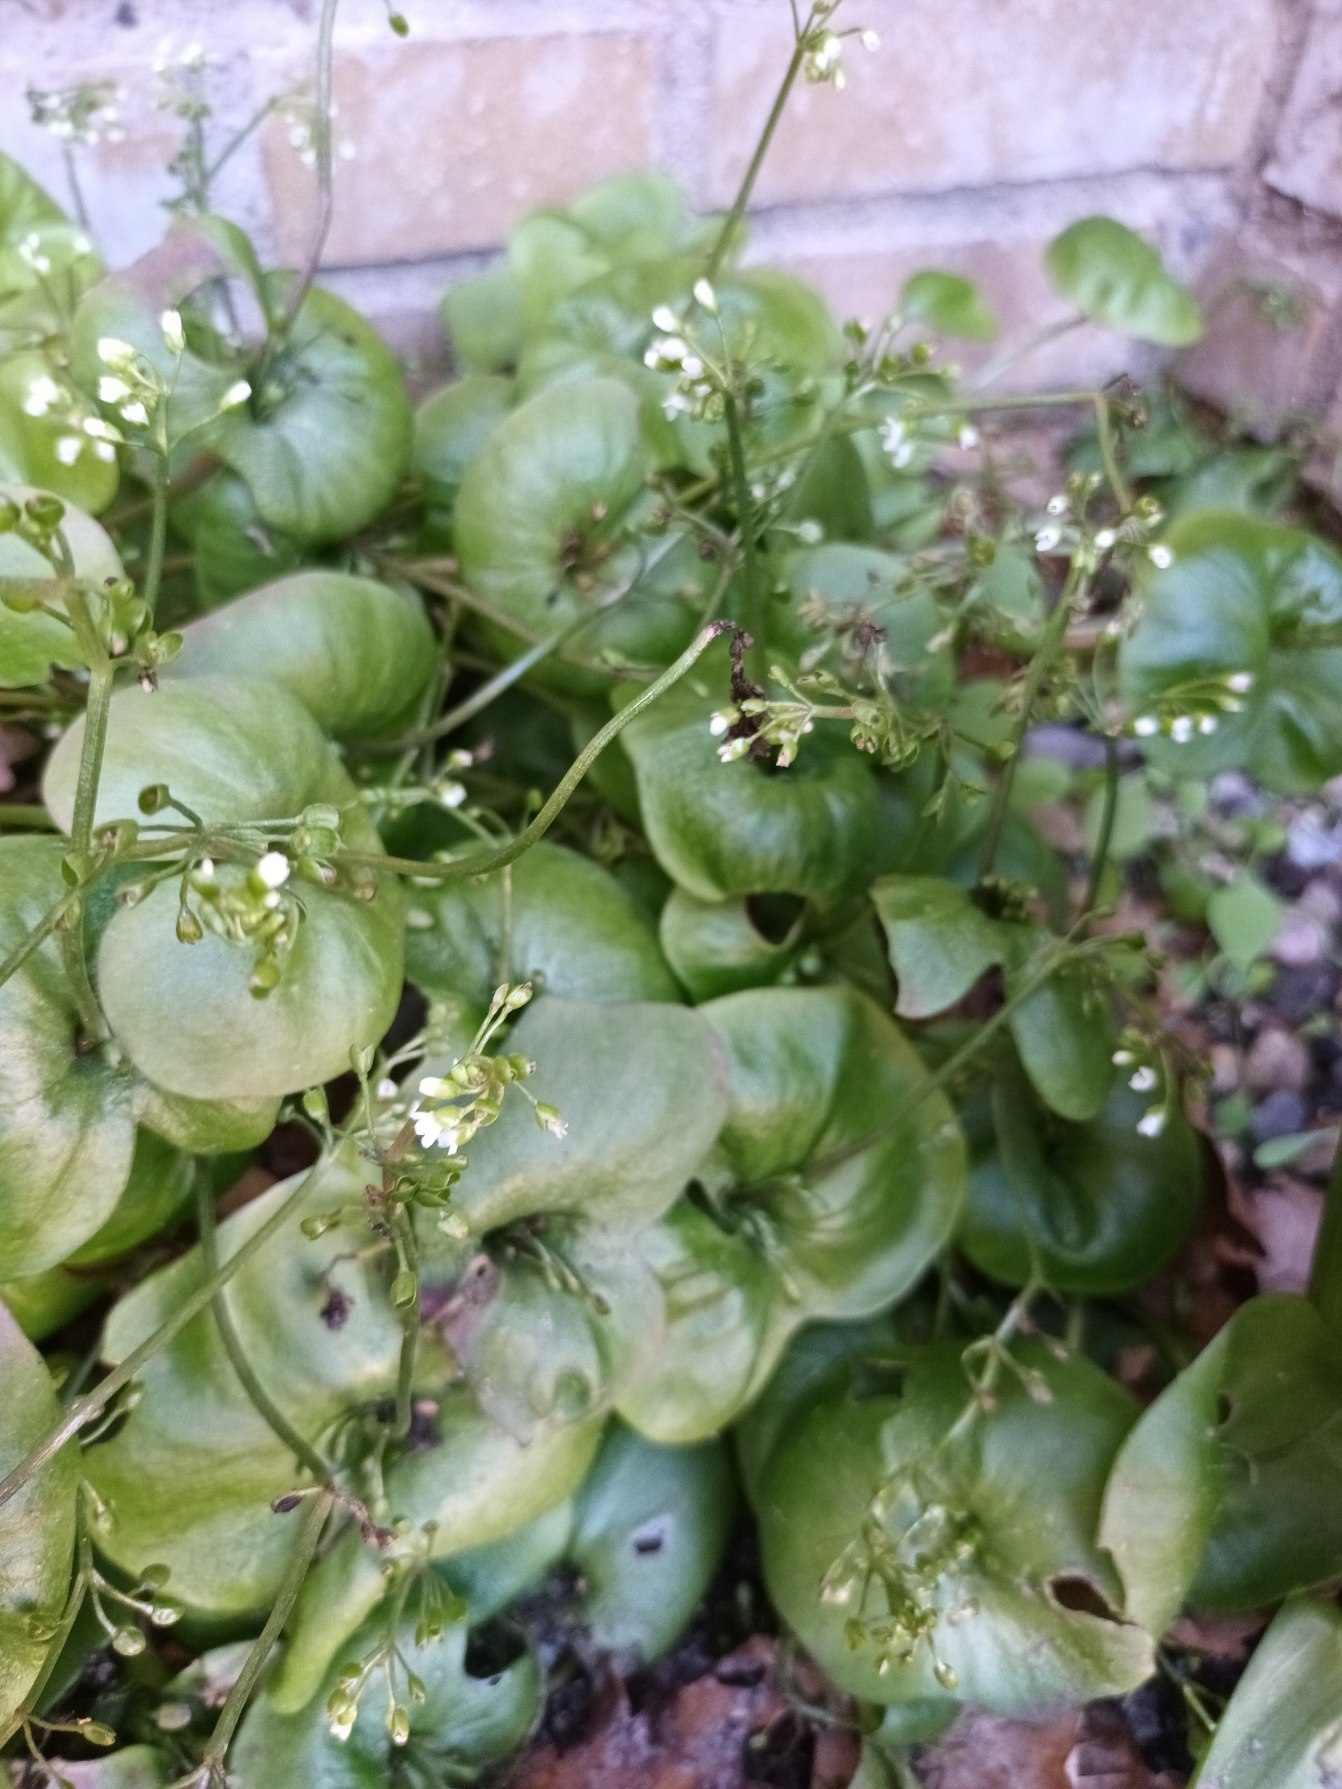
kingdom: Plantae
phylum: Tracheophyta
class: Magnoliopsida
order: Caryophyllales
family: Montiaceae
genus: Claytonia
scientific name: Claytonia perfoliata
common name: Spiselig vinterportulak
